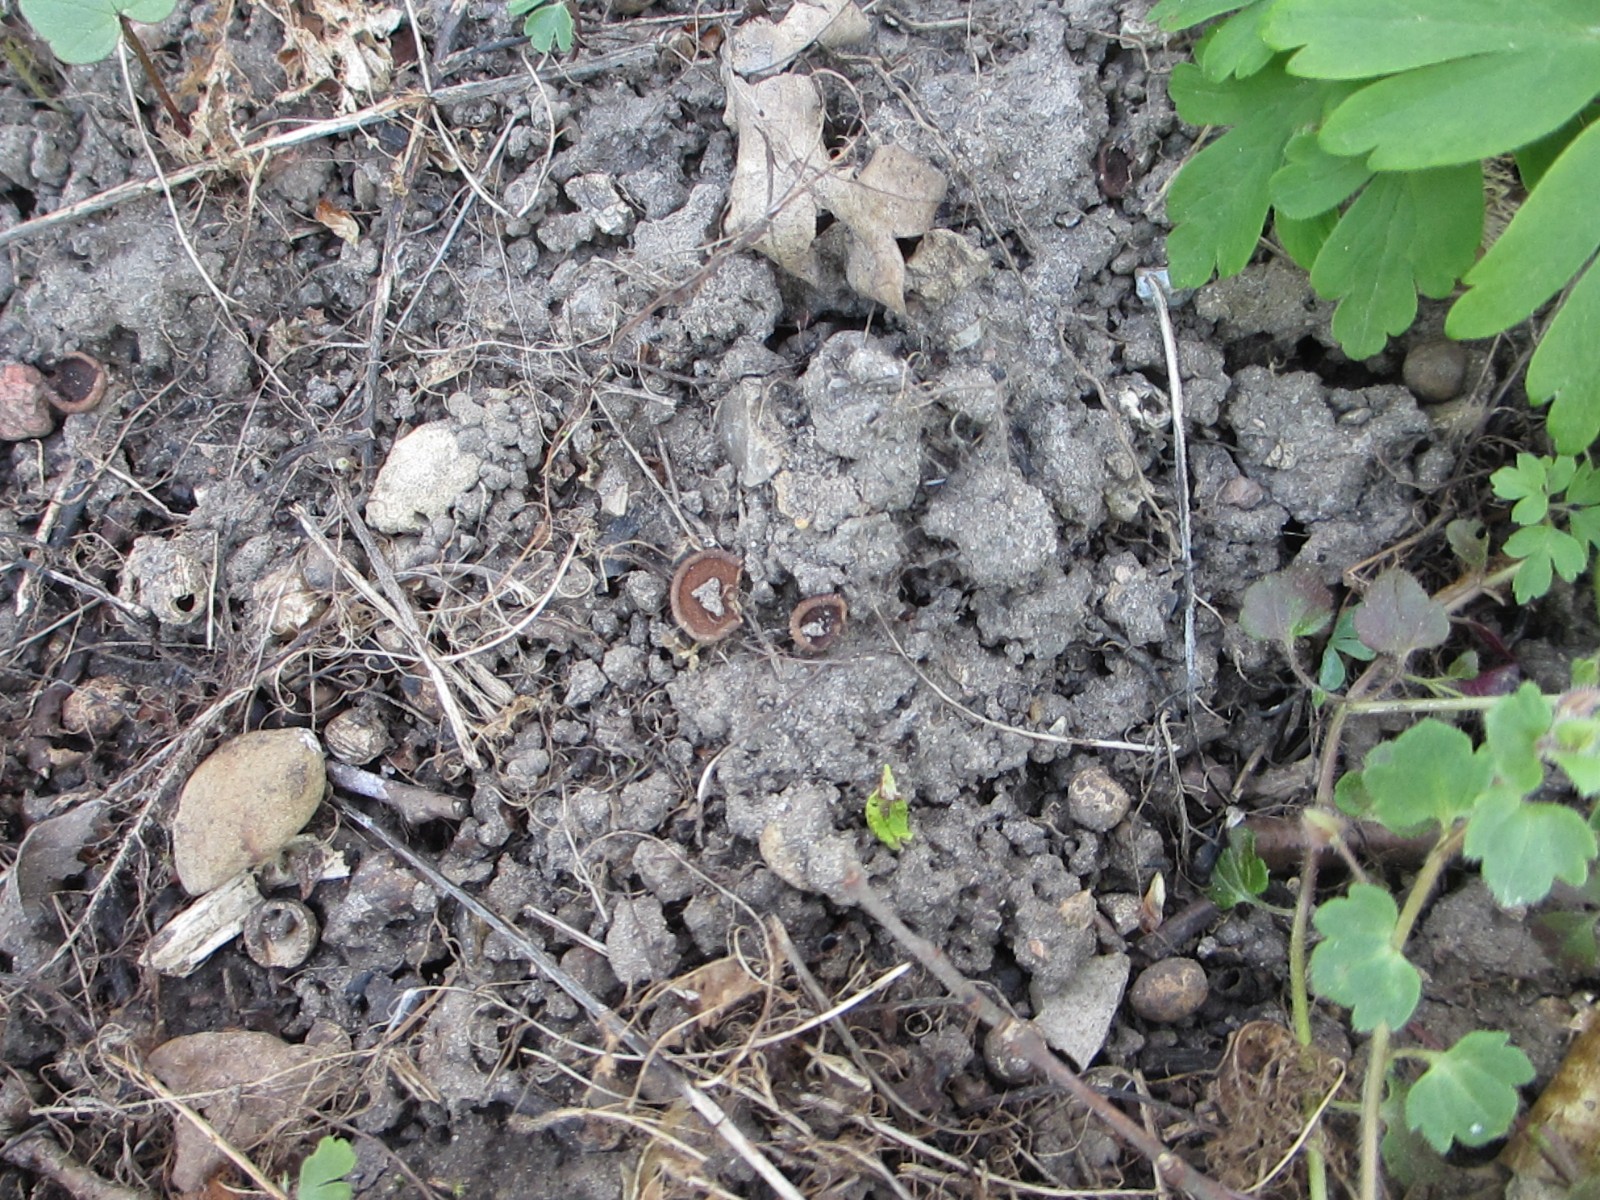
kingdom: Fungi
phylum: Ascomycota
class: Leotiomycetes
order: Helotiales
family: Sclerotiniaceae
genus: Dumontinia
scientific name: Dumontinia tuberosa
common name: anemone-knoldskive
